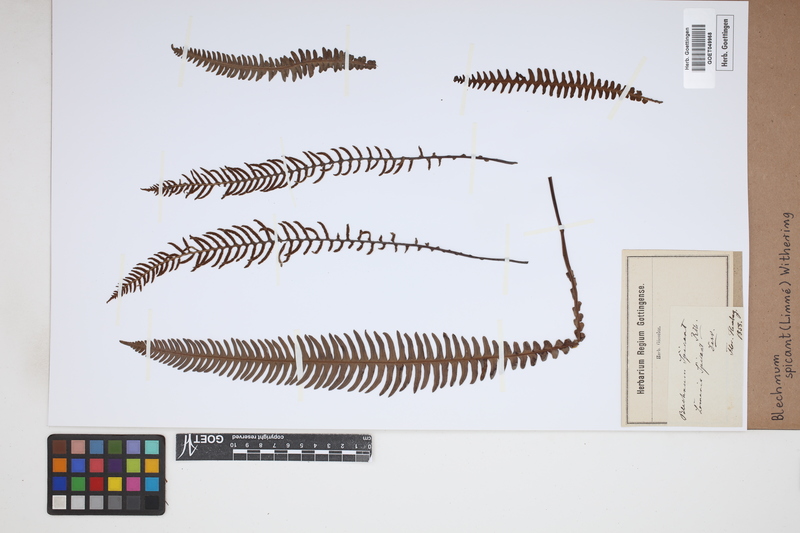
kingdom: Plantae
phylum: Tracheophyta
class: Polypodiopsida
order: Polypodiales
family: Blechnaceae
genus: Struthiopteris
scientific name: Struthiopteris spicant
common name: Deer fern
